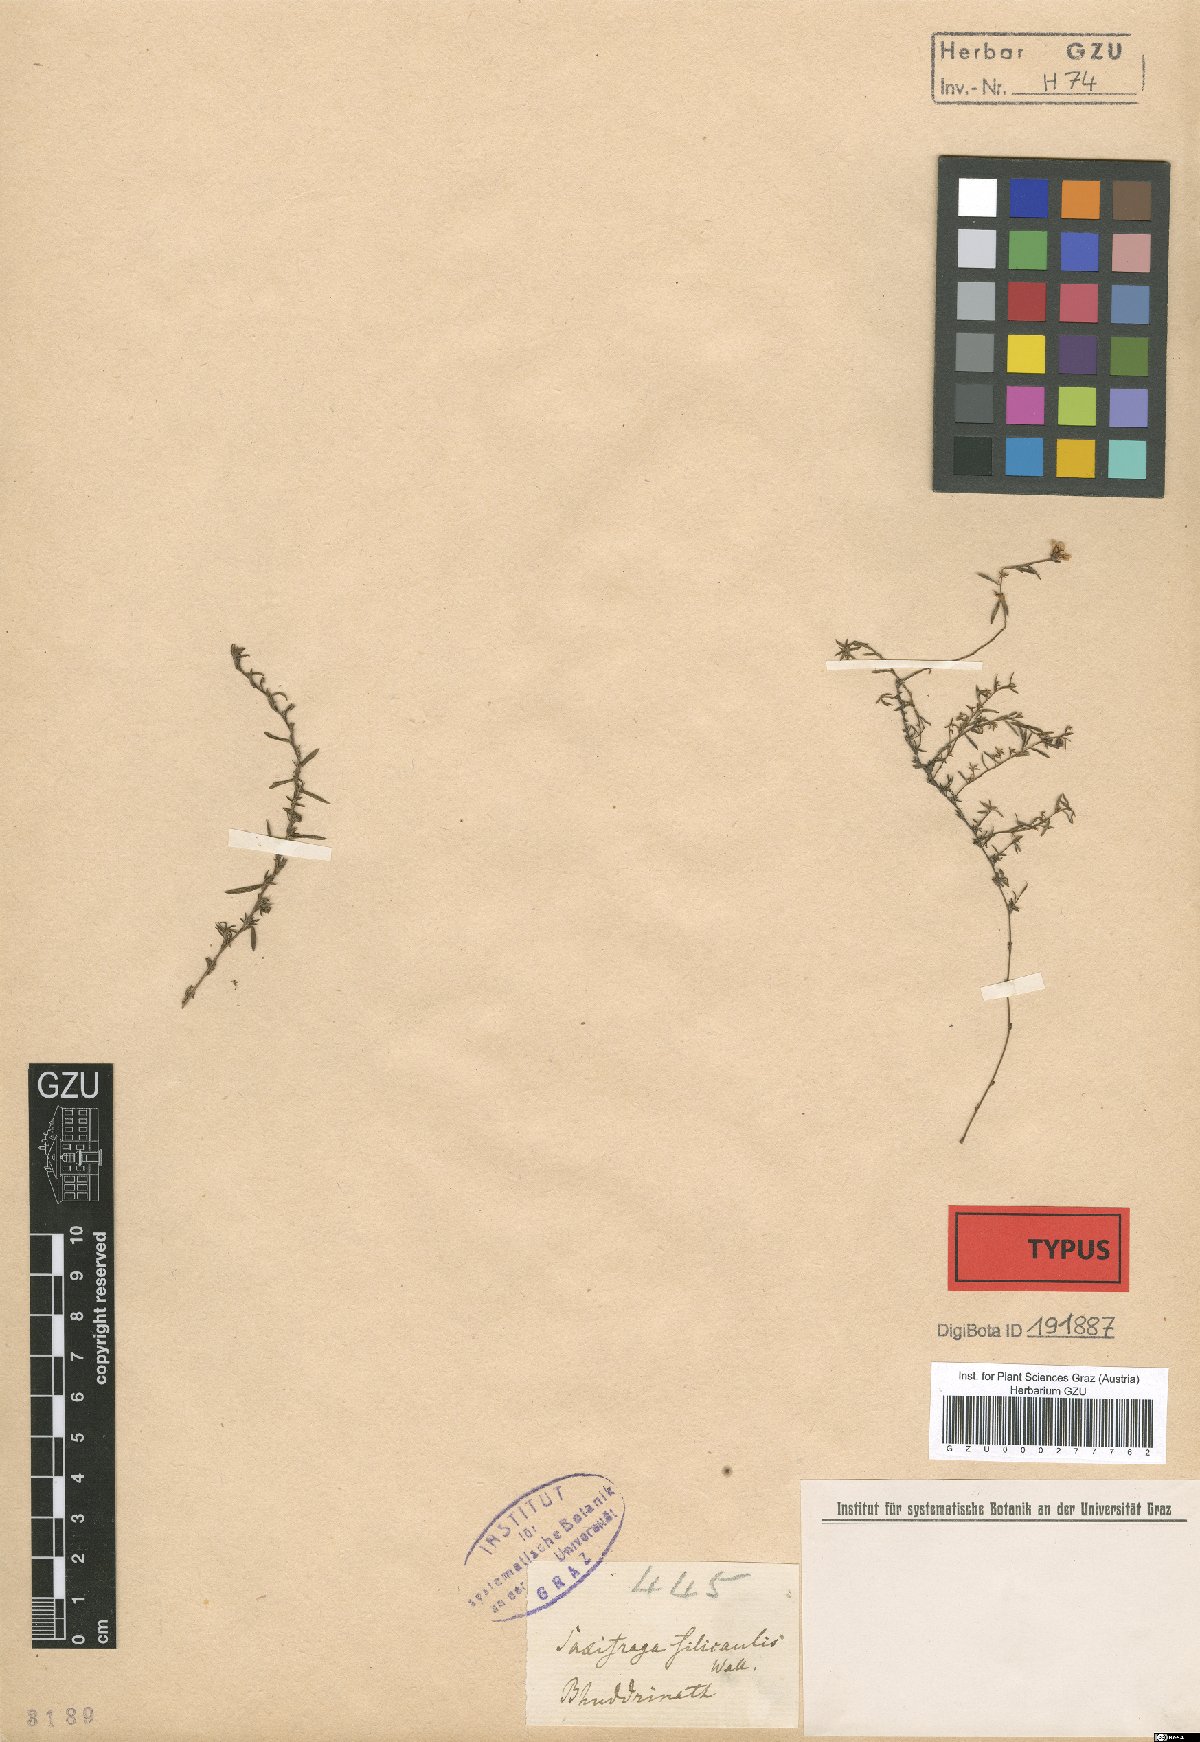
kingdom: Plantae
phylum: Tracheophyta
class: Magnoliopsida
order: Saxifragales
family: Saxifragaceae
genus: Saxifraga
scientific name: Saxifraga filicaulis
